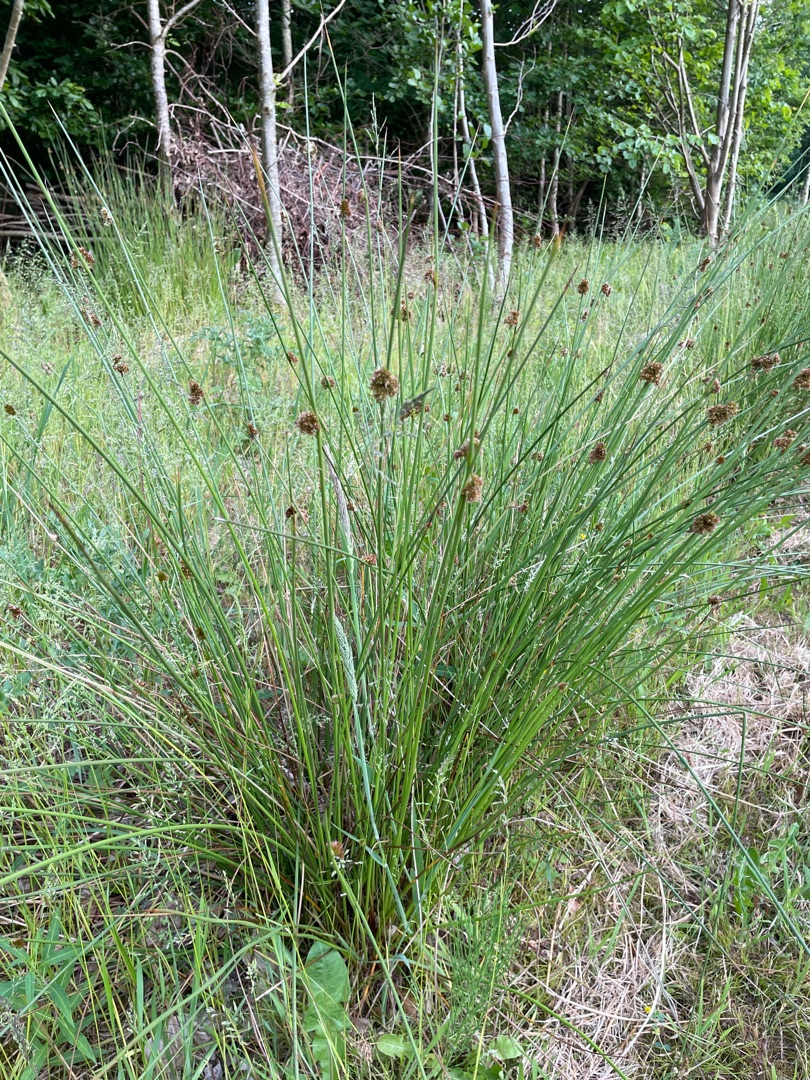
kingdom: Plantae
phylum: Tracheophyta
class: Liliopsida
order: Poales
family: Juncaceae
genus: Juncus
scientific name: Juncus effusus
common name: Lyse-siv
